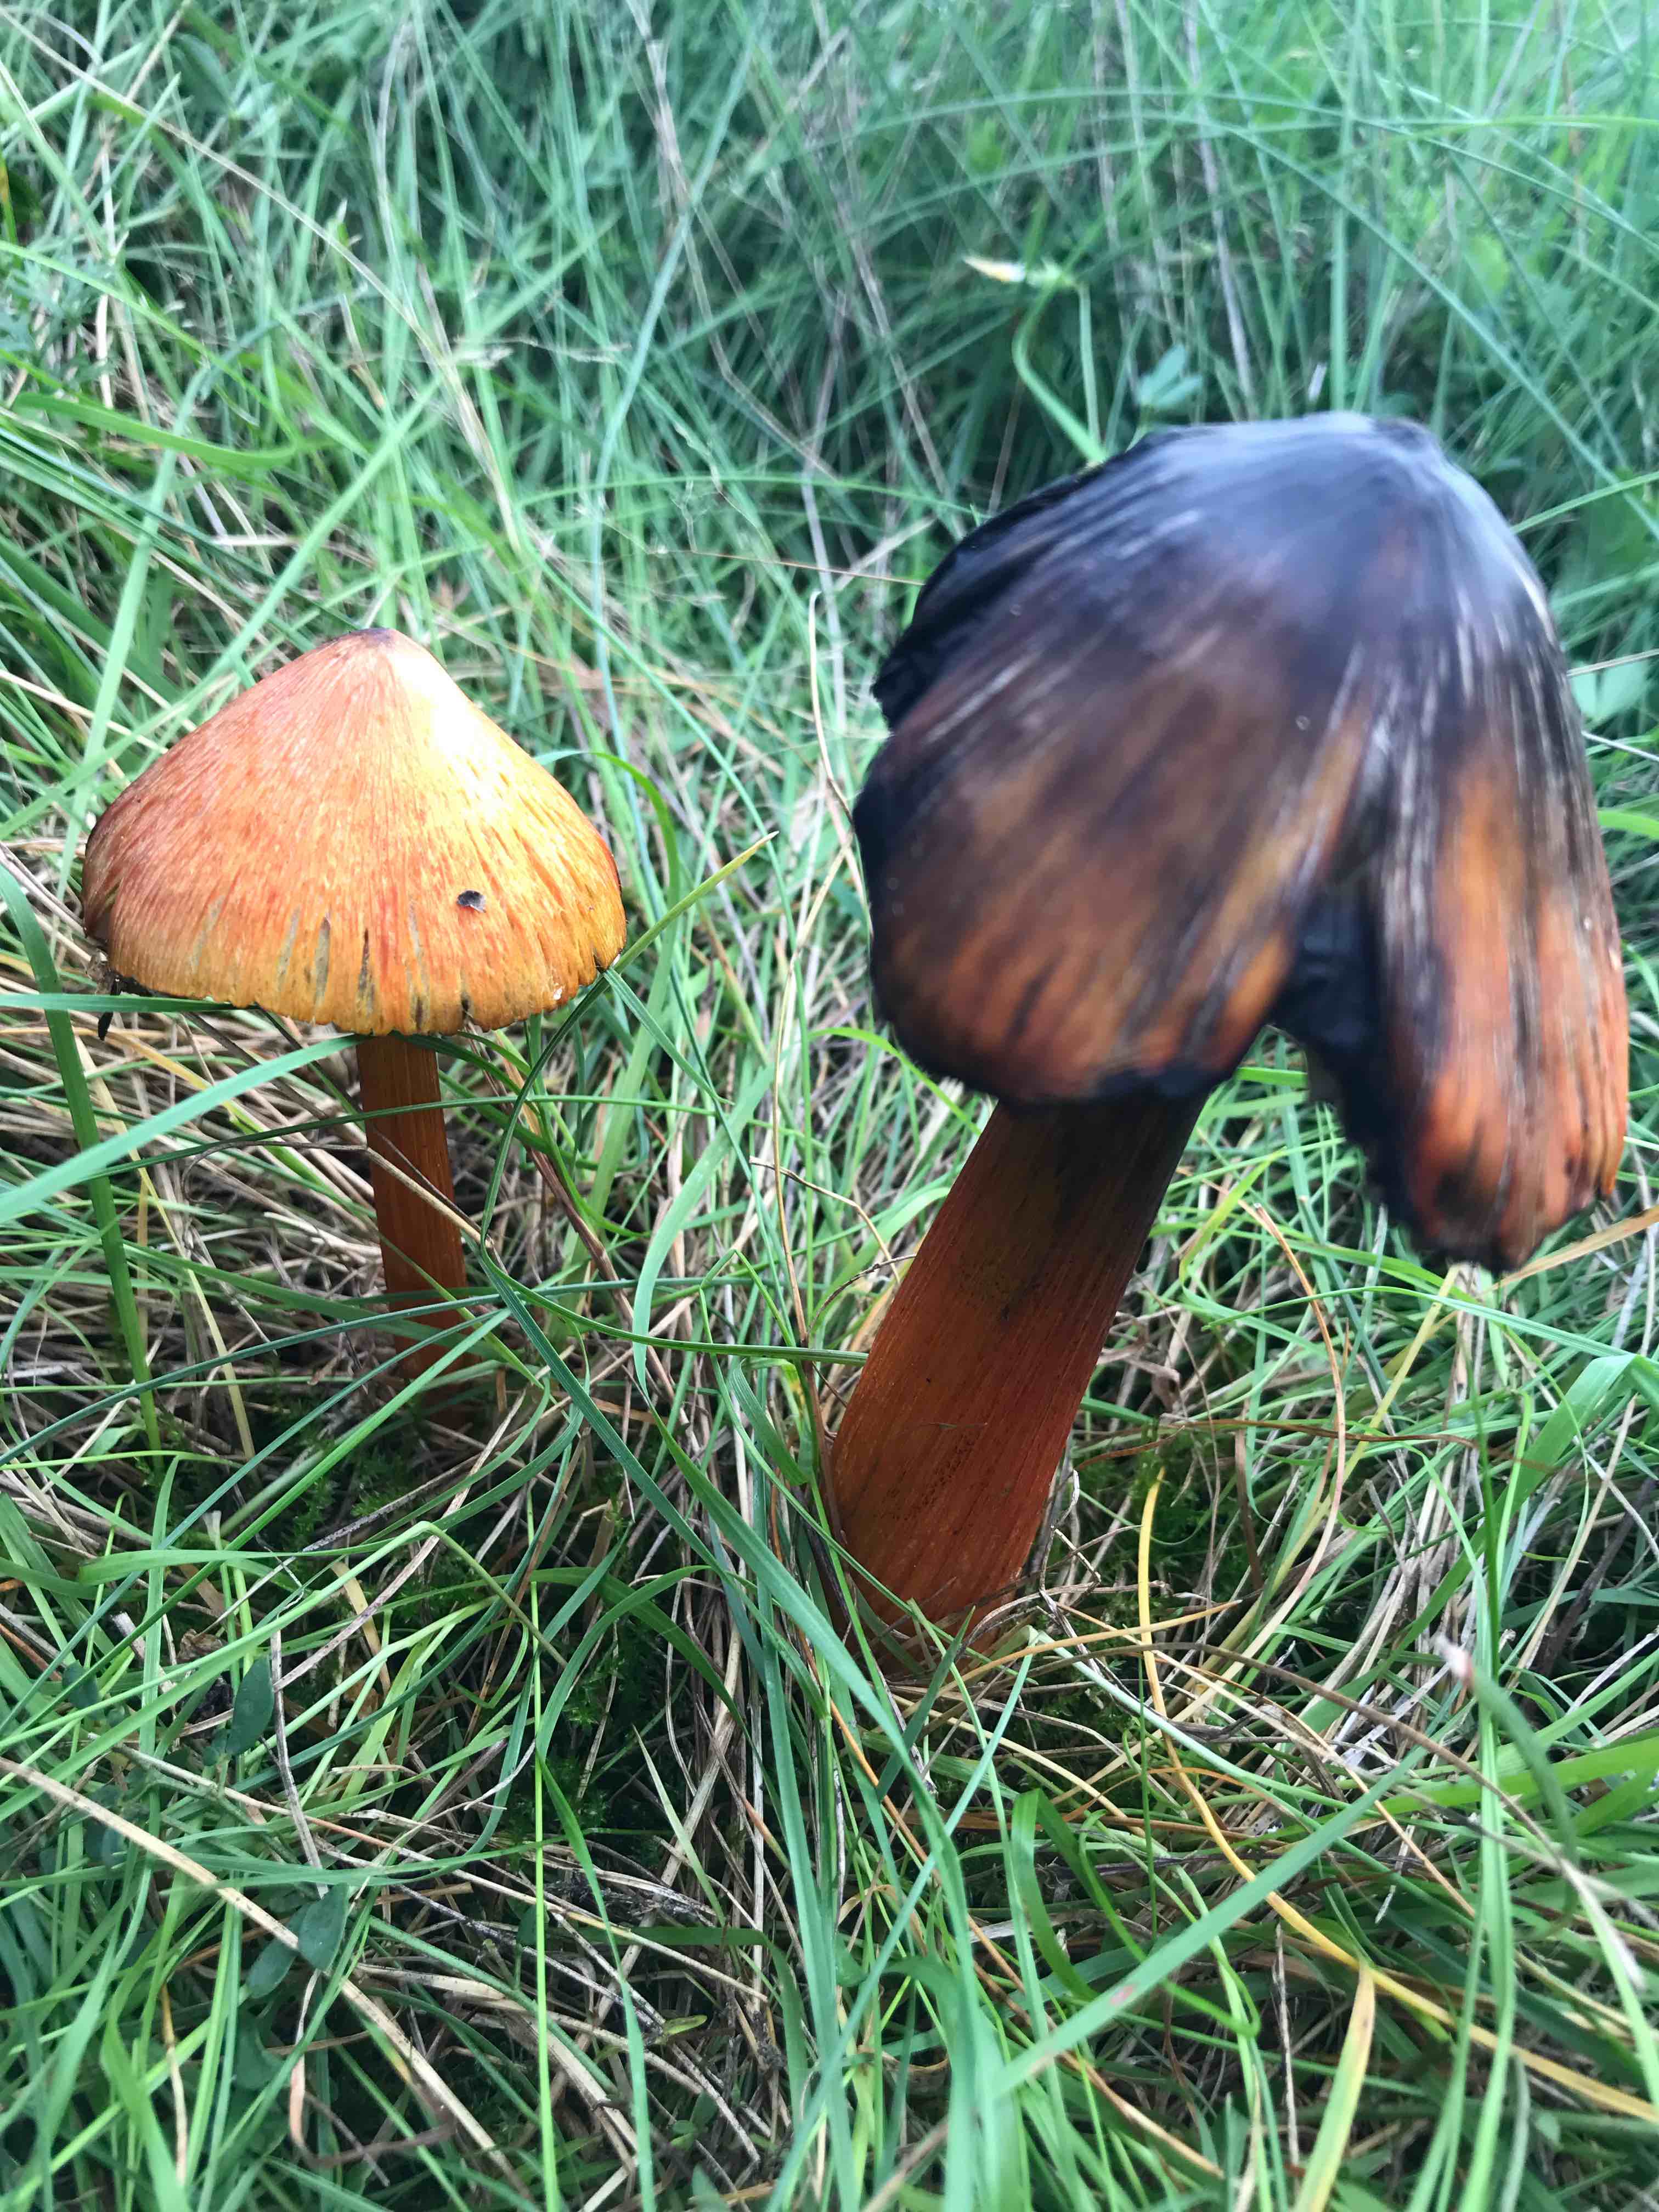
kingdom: Fungi
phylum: Basidiomycota
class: Agaricomycetes
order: Agaricales
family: Hygrophoraceae
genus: Hygrocybe
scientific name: Hygrocybe conica
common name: kegle-vokshat
